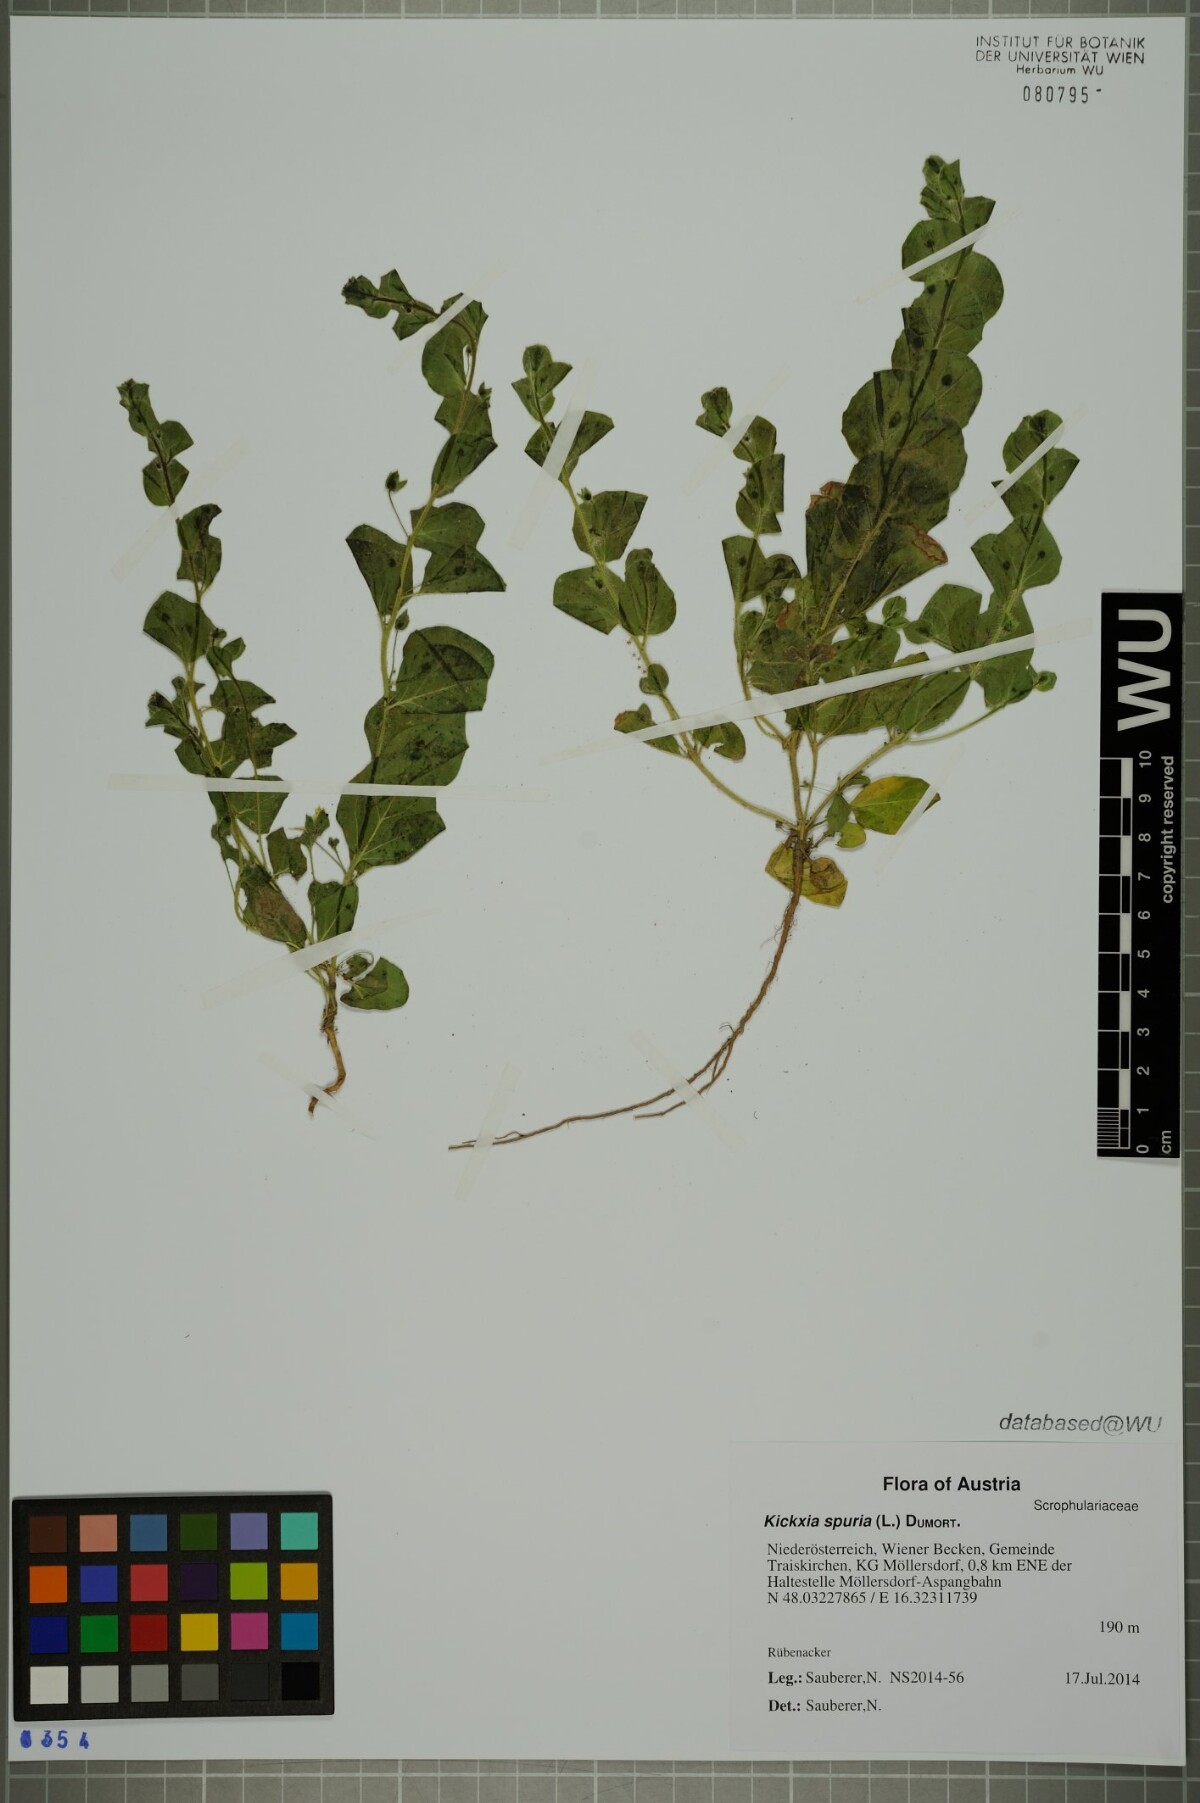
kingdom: Plantae
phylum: Tracheophyta
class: Magnoliopsida
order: Lamiales
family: Plantaginaceae
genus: Kickxia
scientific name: Kickxia spuria
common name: Round-leaved fluellen
